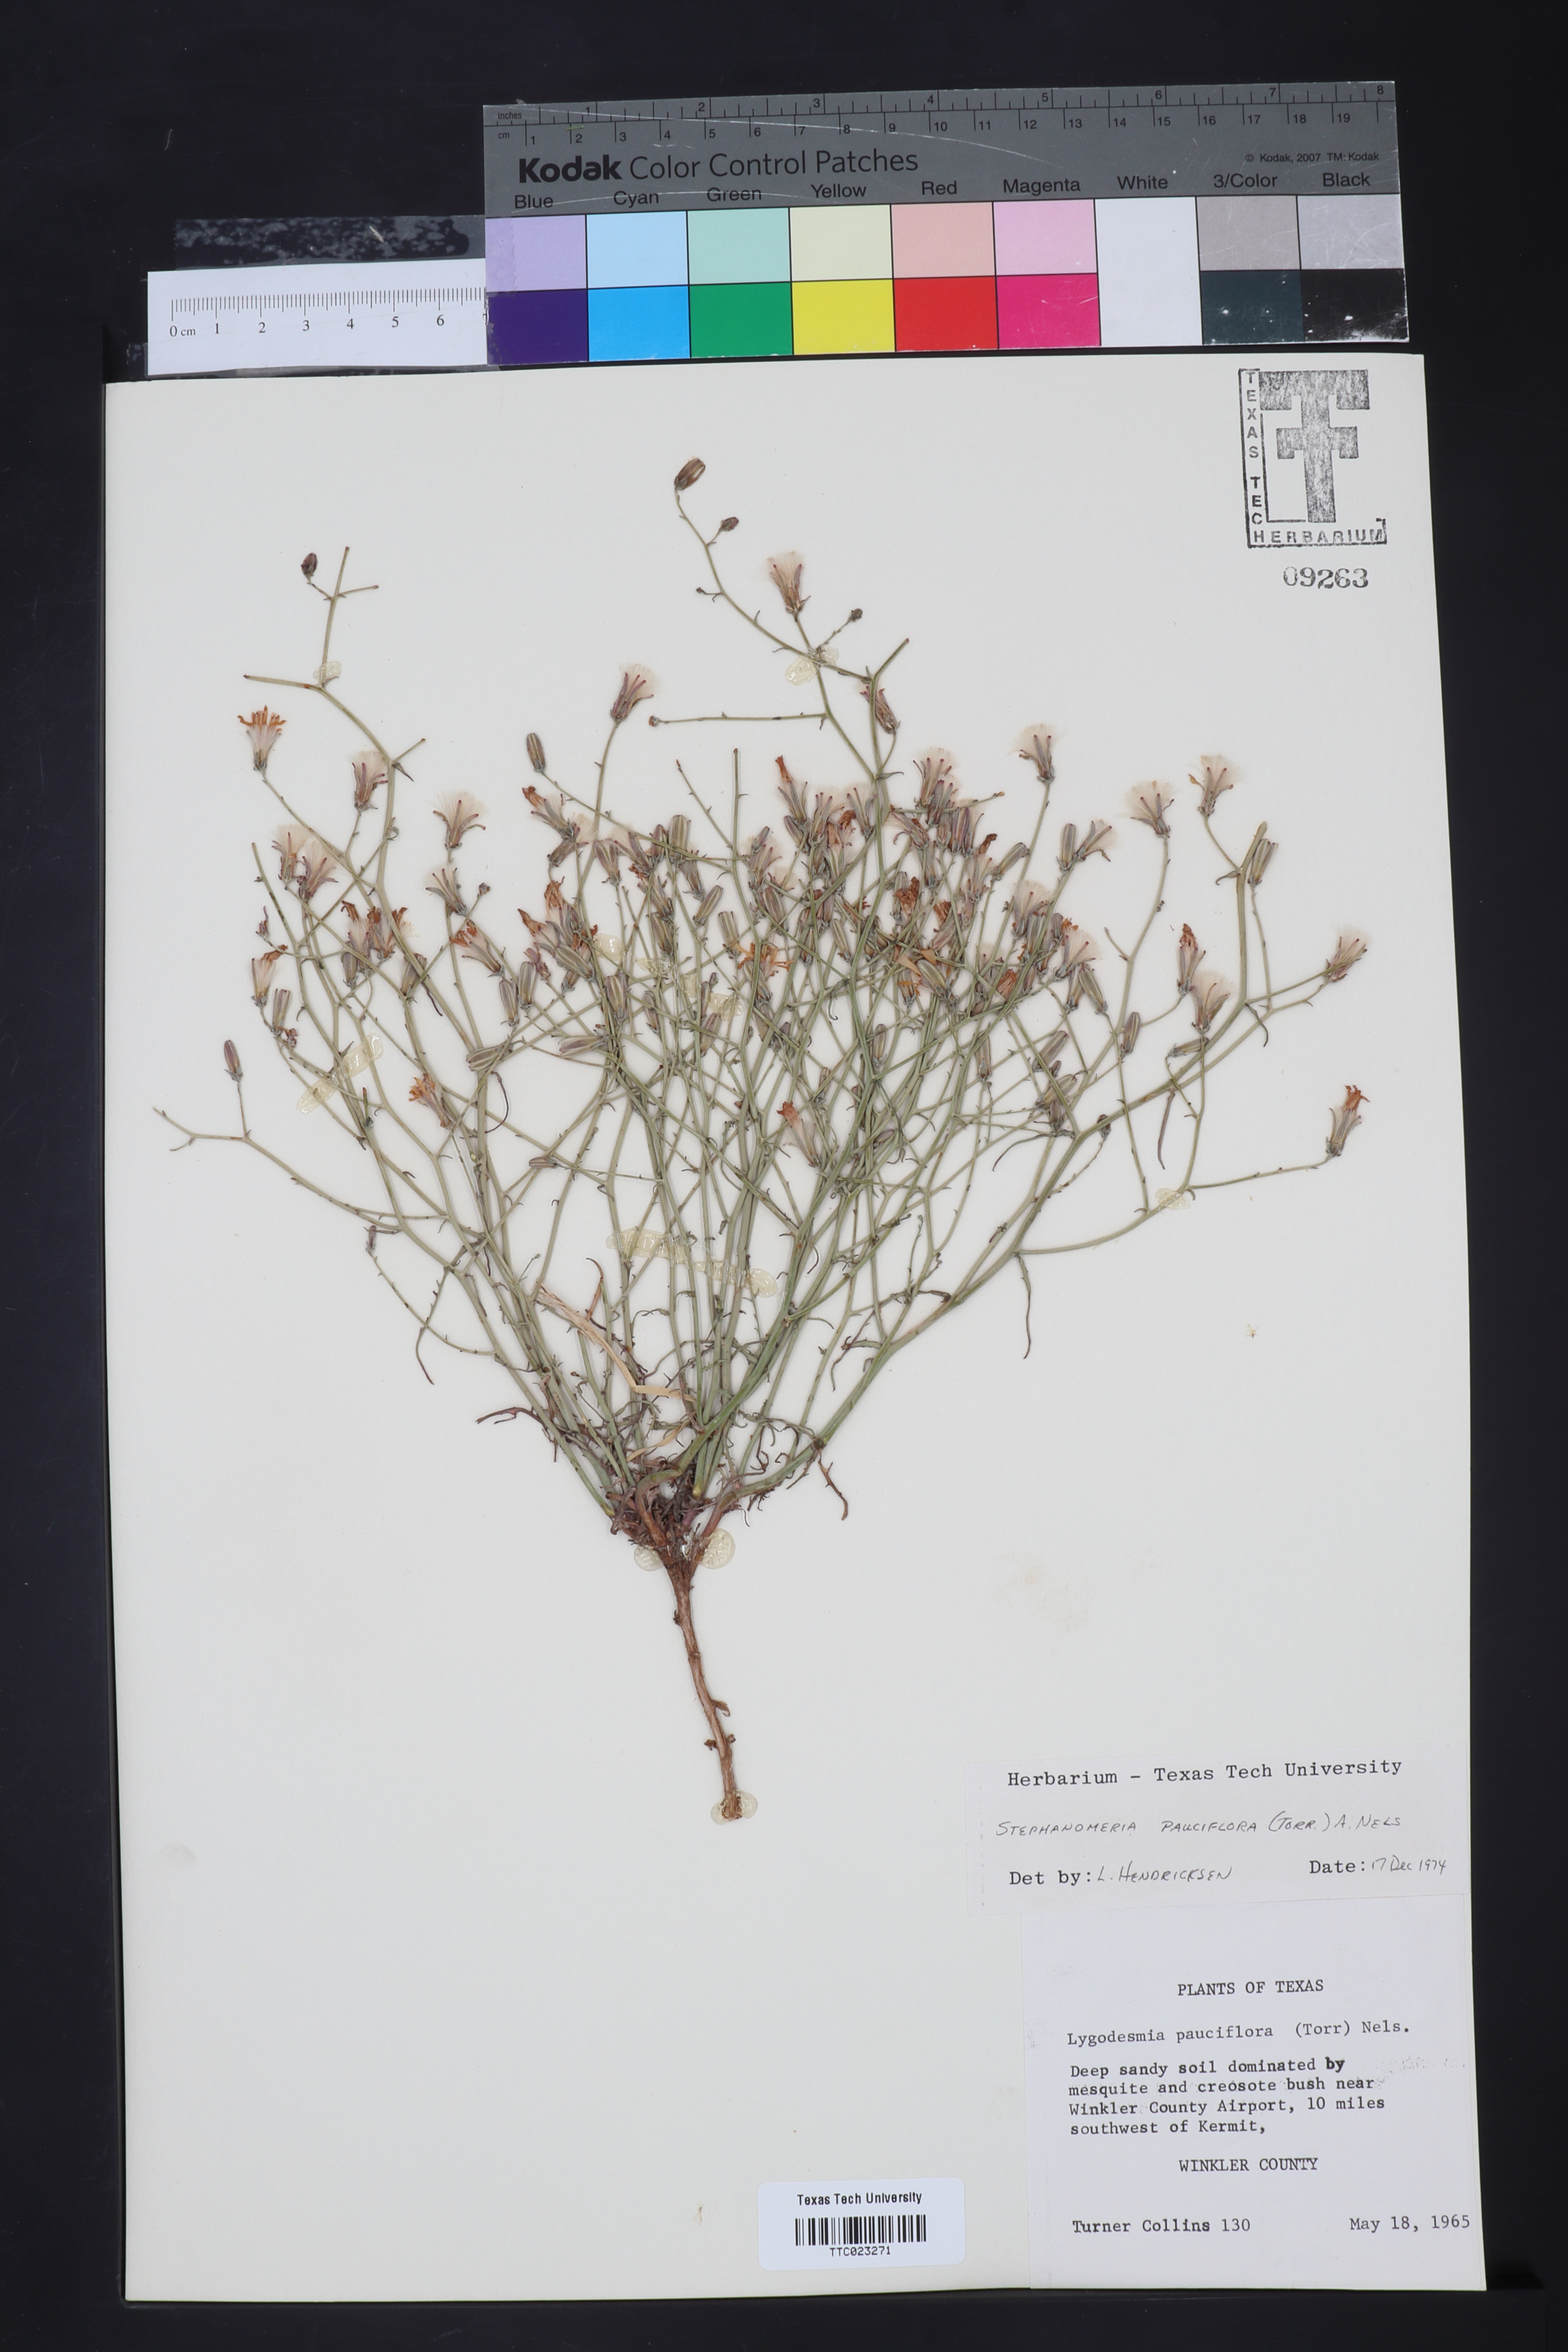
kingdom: Plantae
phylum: Tracheophyta
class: Magnoliopsida
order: Asterales
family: Asteraceae
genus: Stephanomeria
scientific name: Stephanomeria pauciflora
